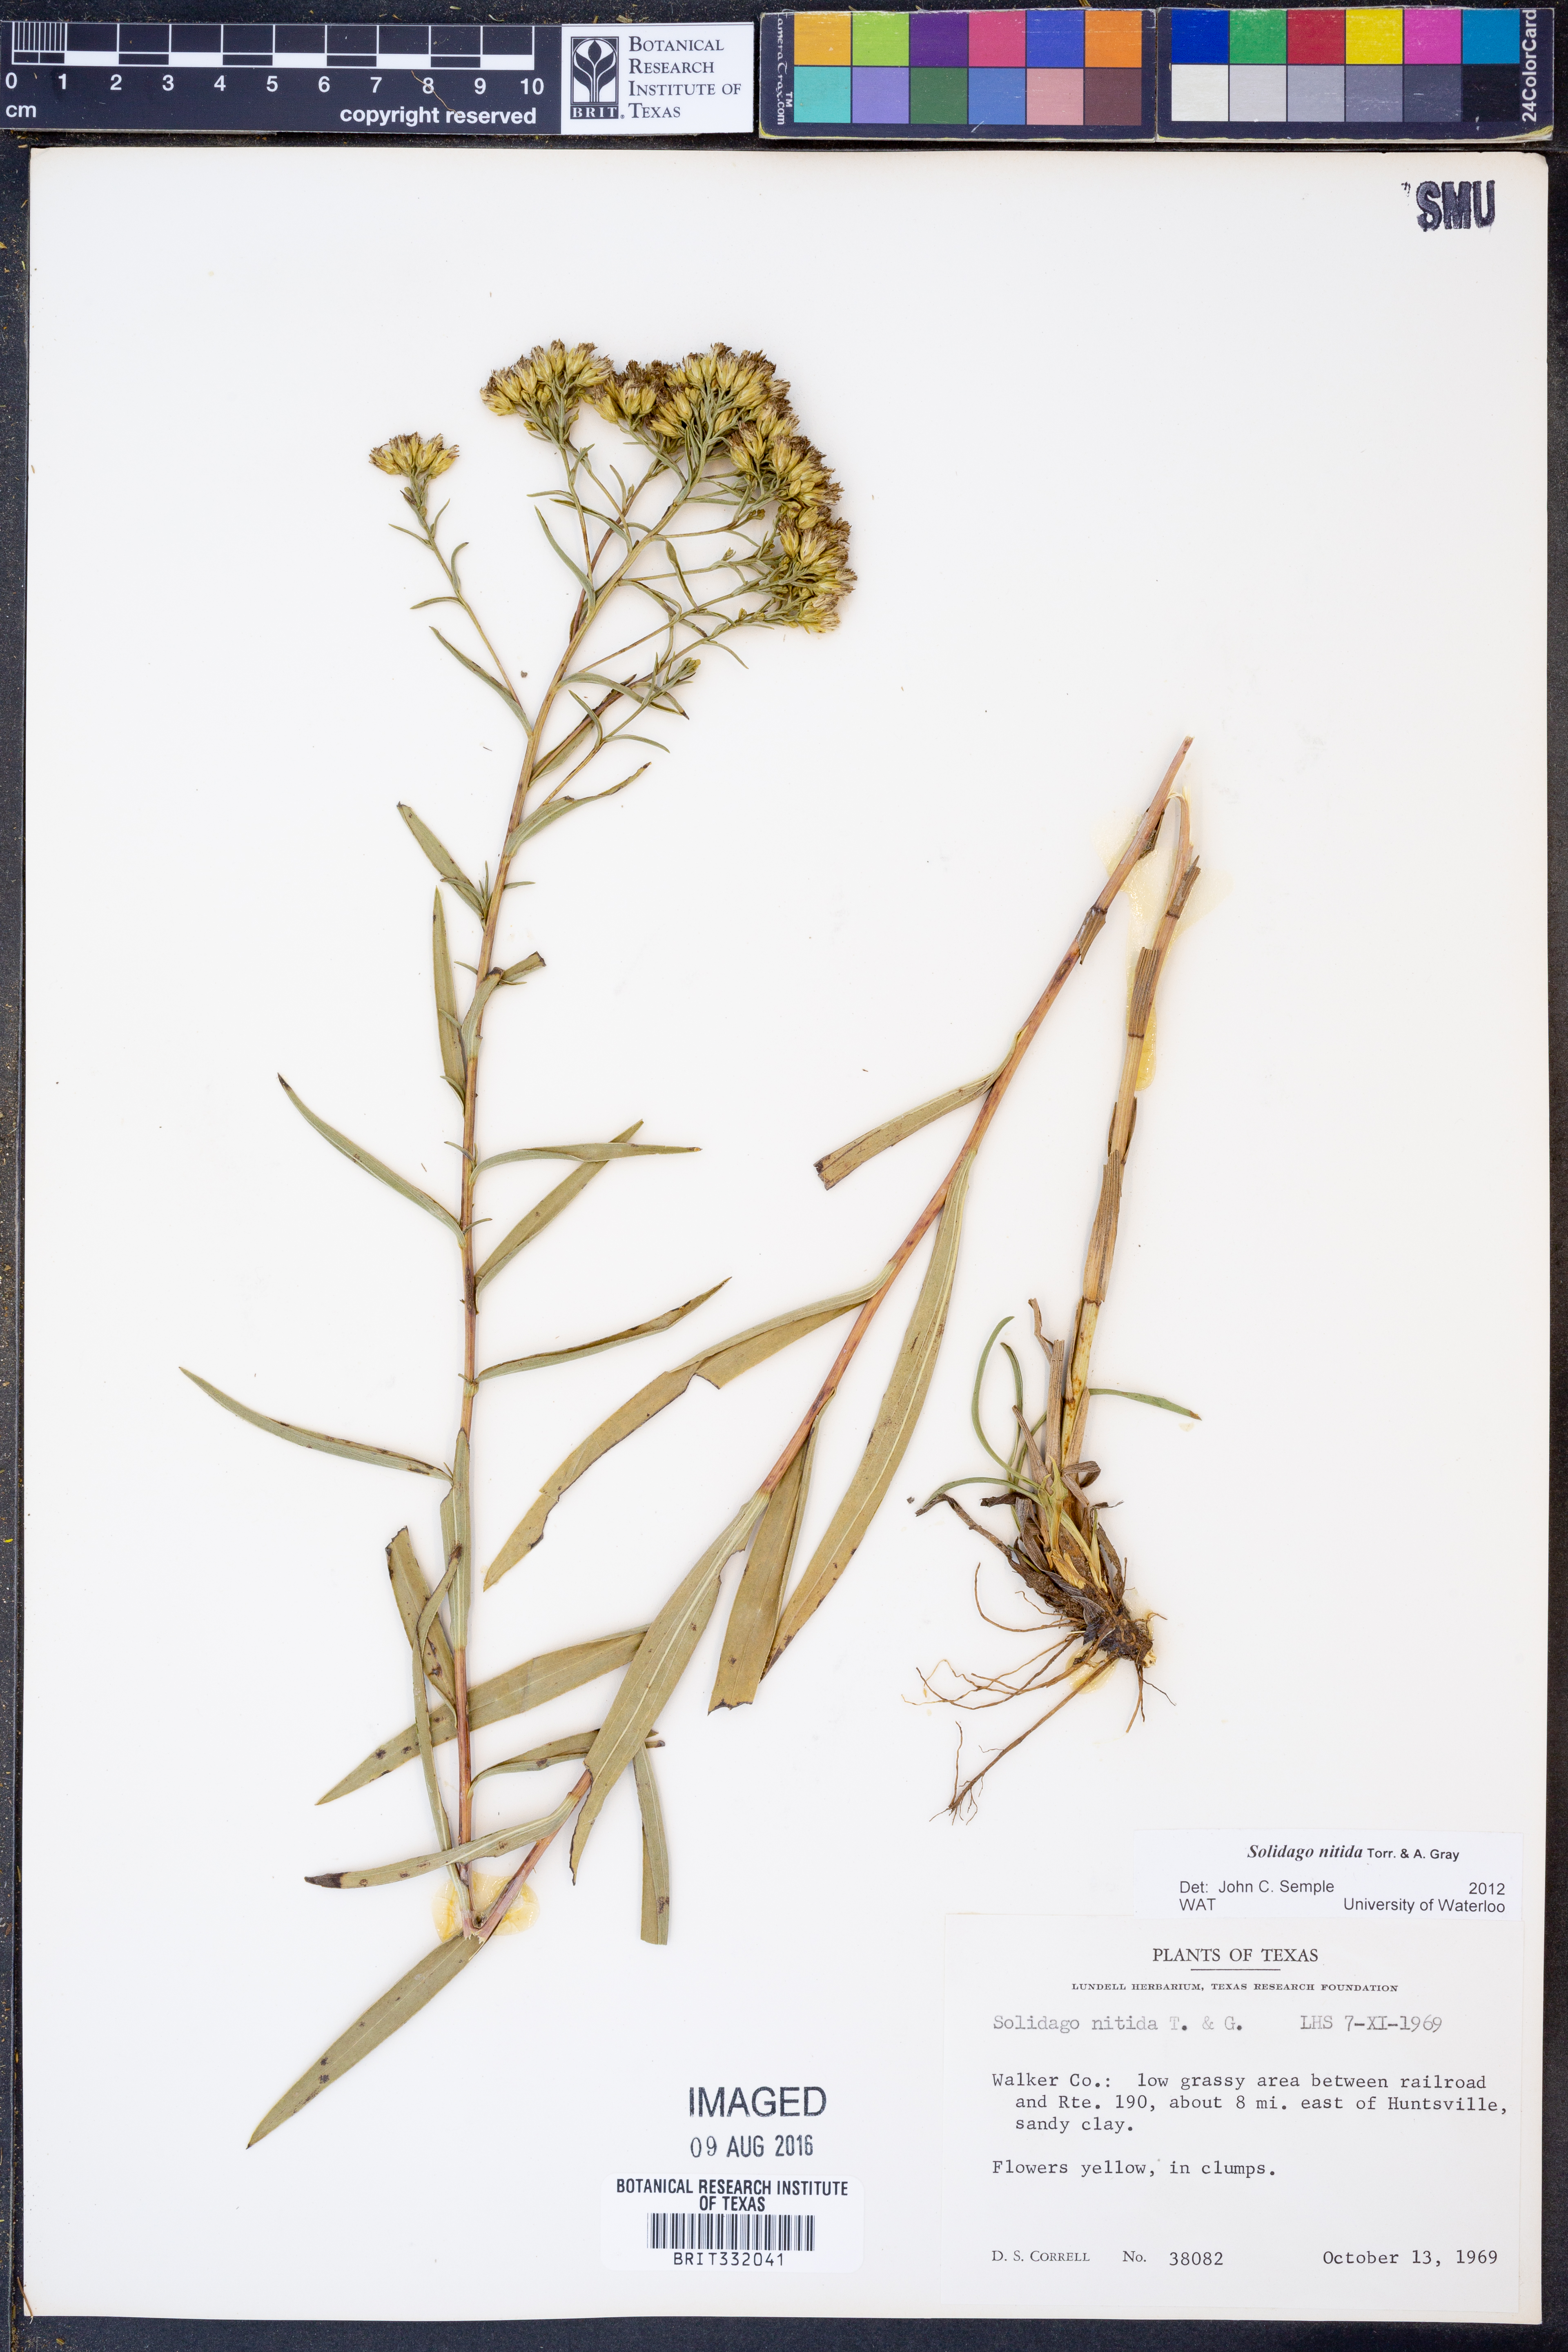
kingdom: Plantae
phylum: Tracheophyta
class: Magnoliopsida
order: Asterales
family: Asteraceae
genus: Solidago
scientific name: Solidago nitida
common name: Shiny goldenrod
